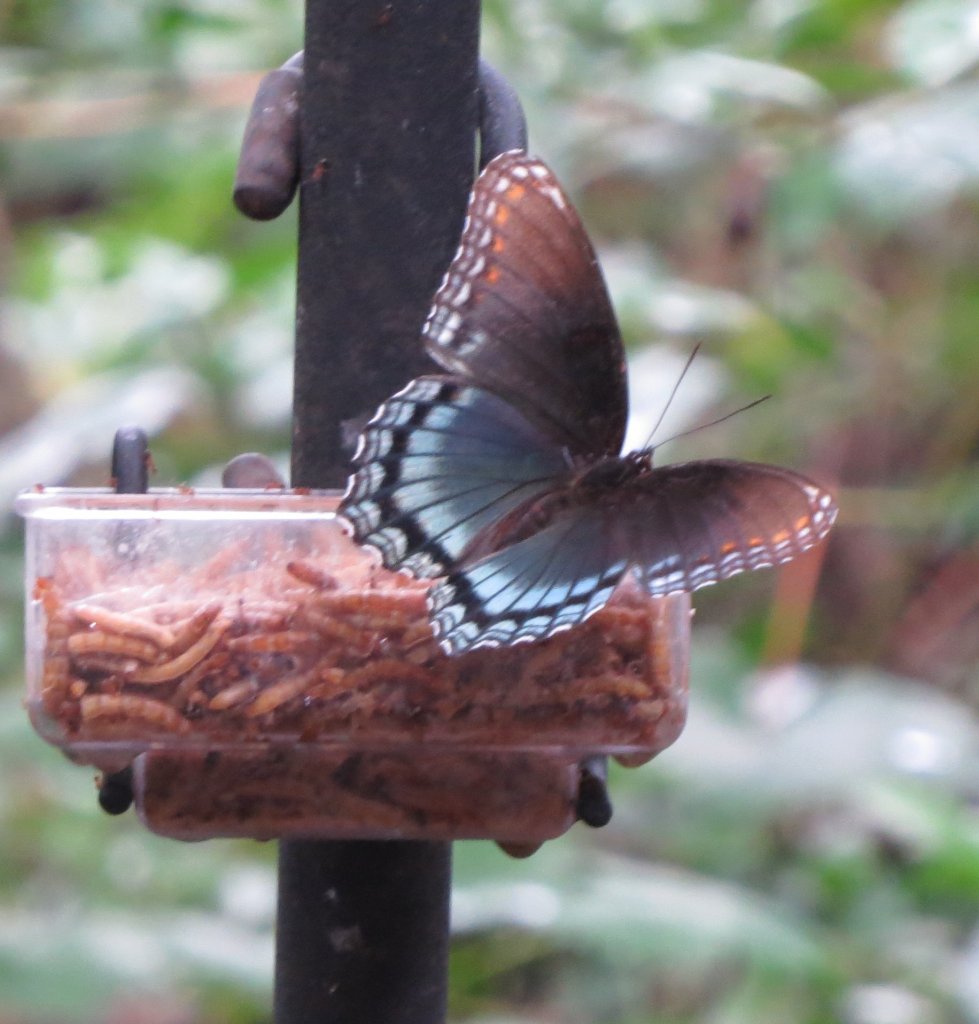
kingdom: Animalia
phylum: Arthropoda
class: Insecta
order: Lepidoptera
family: Nymphalidae
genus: Limenitis
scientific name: Limenitis astyanax
